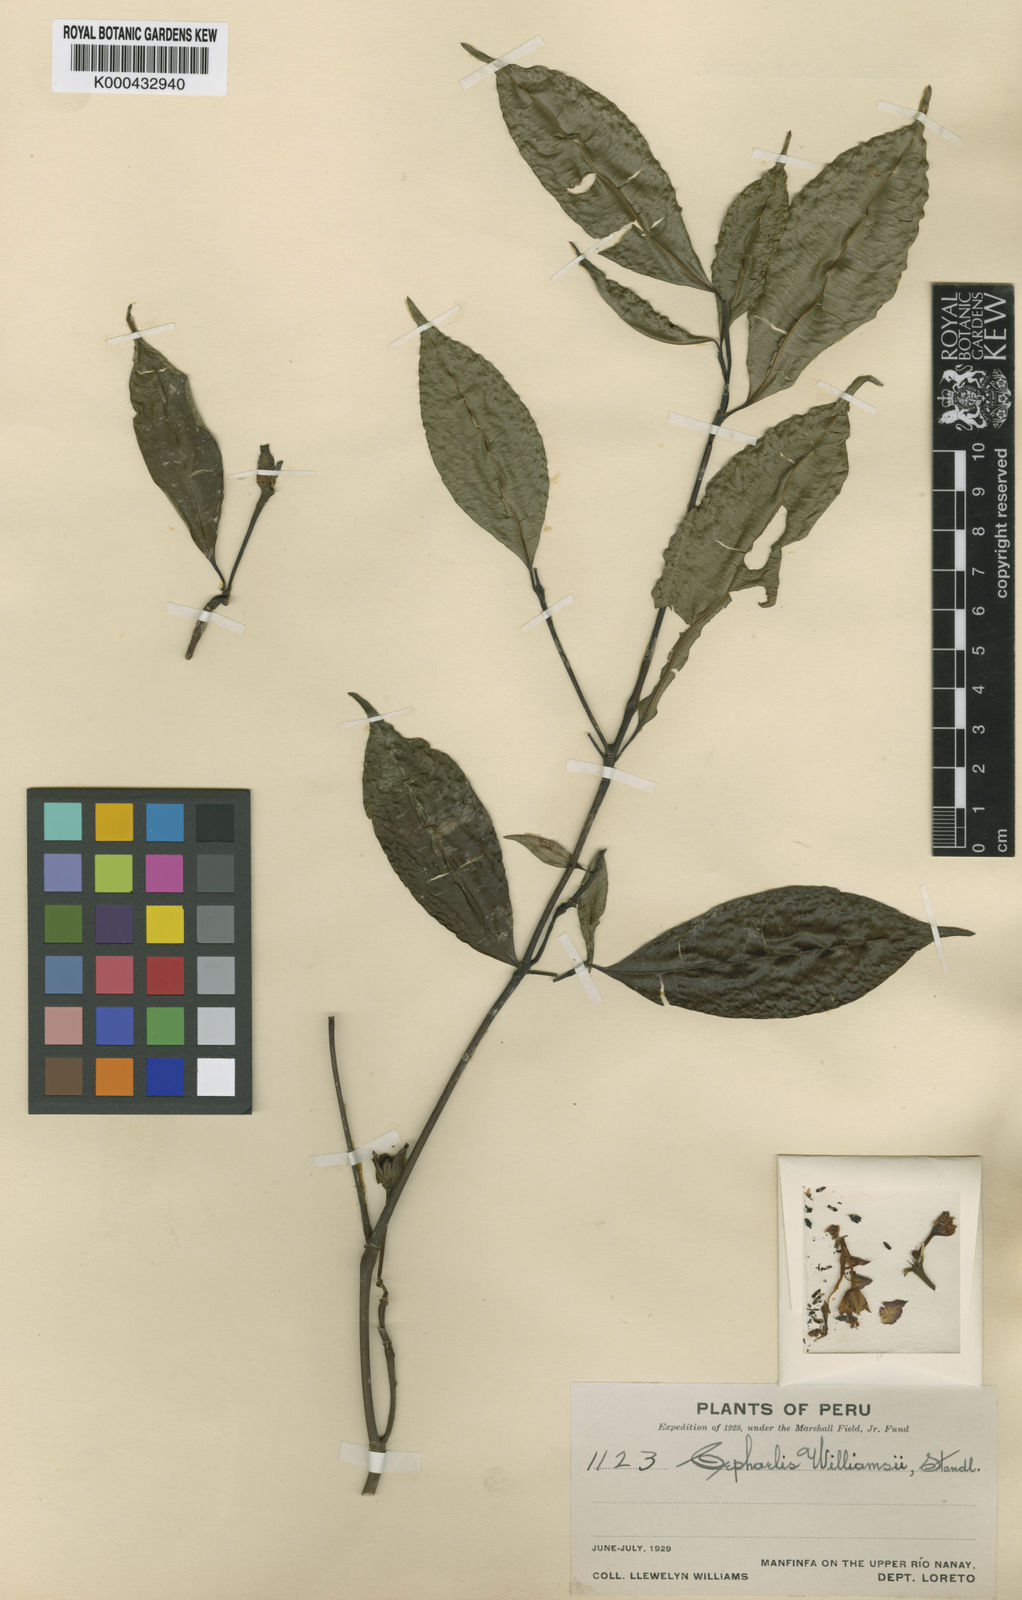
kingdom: Plantae
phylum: Tracheophyta
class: Magnoliopsida
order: Gentianales
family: Rubiaceae
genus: Psychotria
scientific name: Psychotria williamsii
